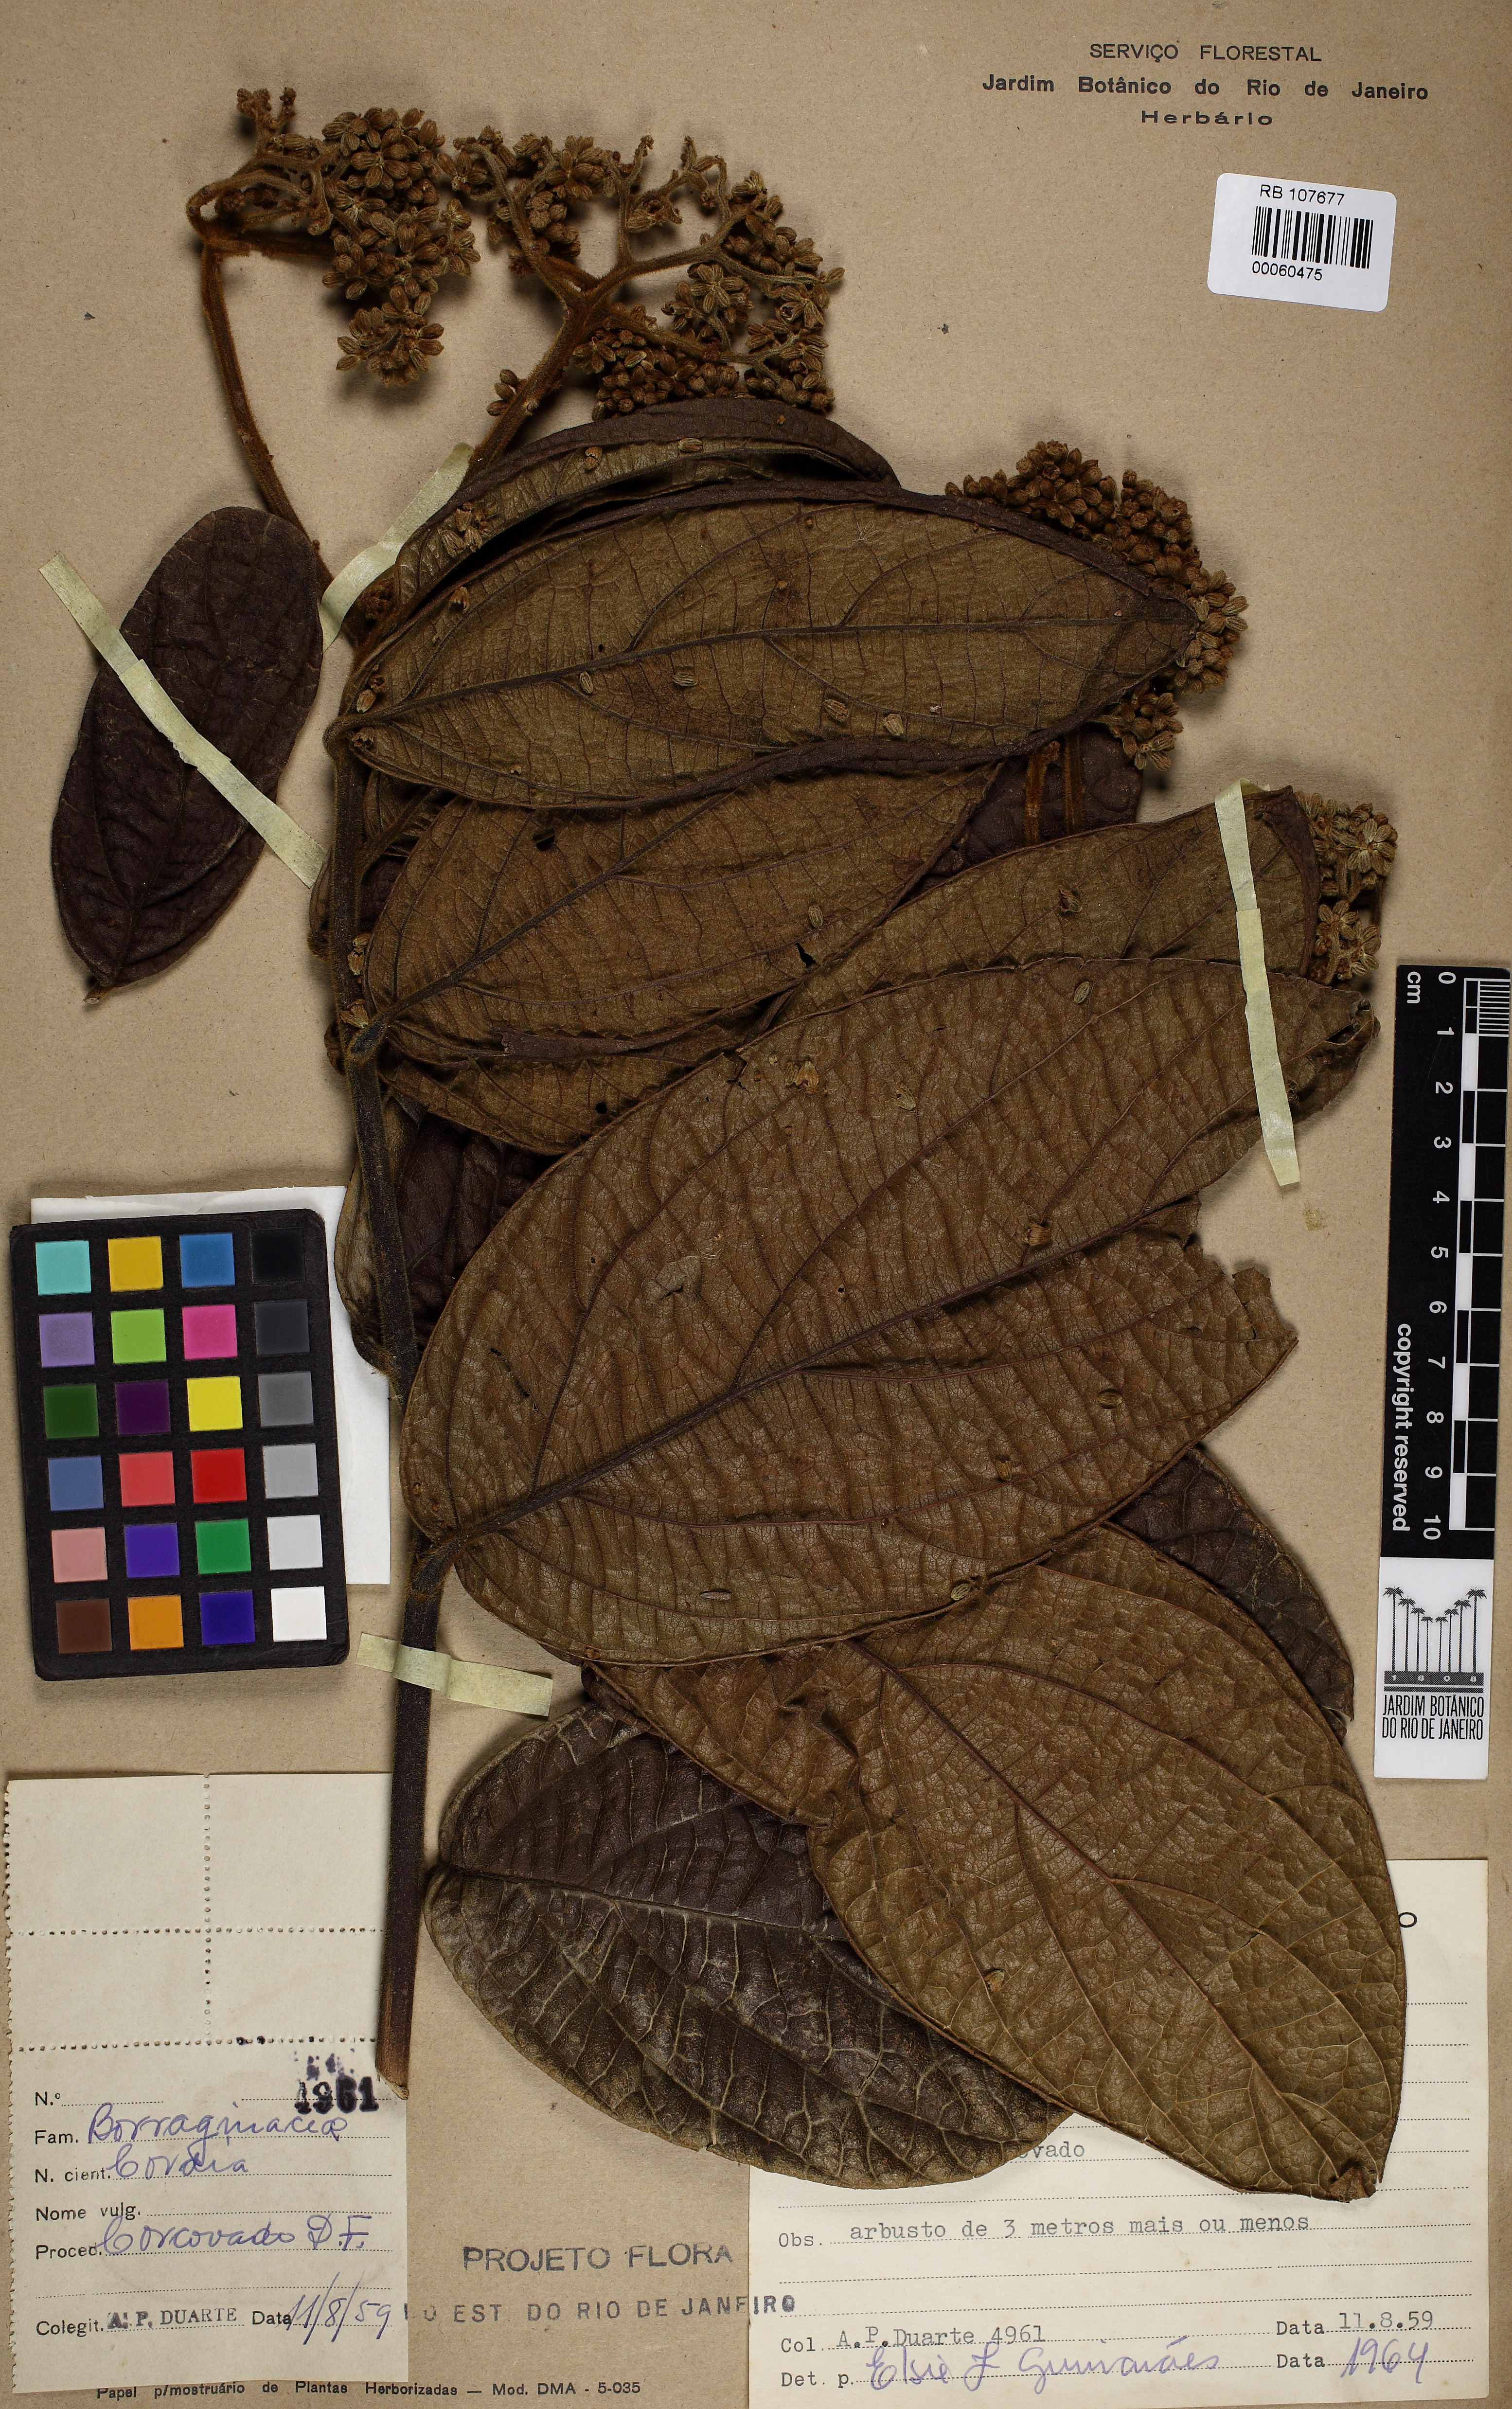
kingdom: Plantae
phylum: Tracheophyta
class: Magnoliopsida
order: Boraginales
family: Cordiaceae
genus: Cordia
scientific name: Cordia trichoclada
